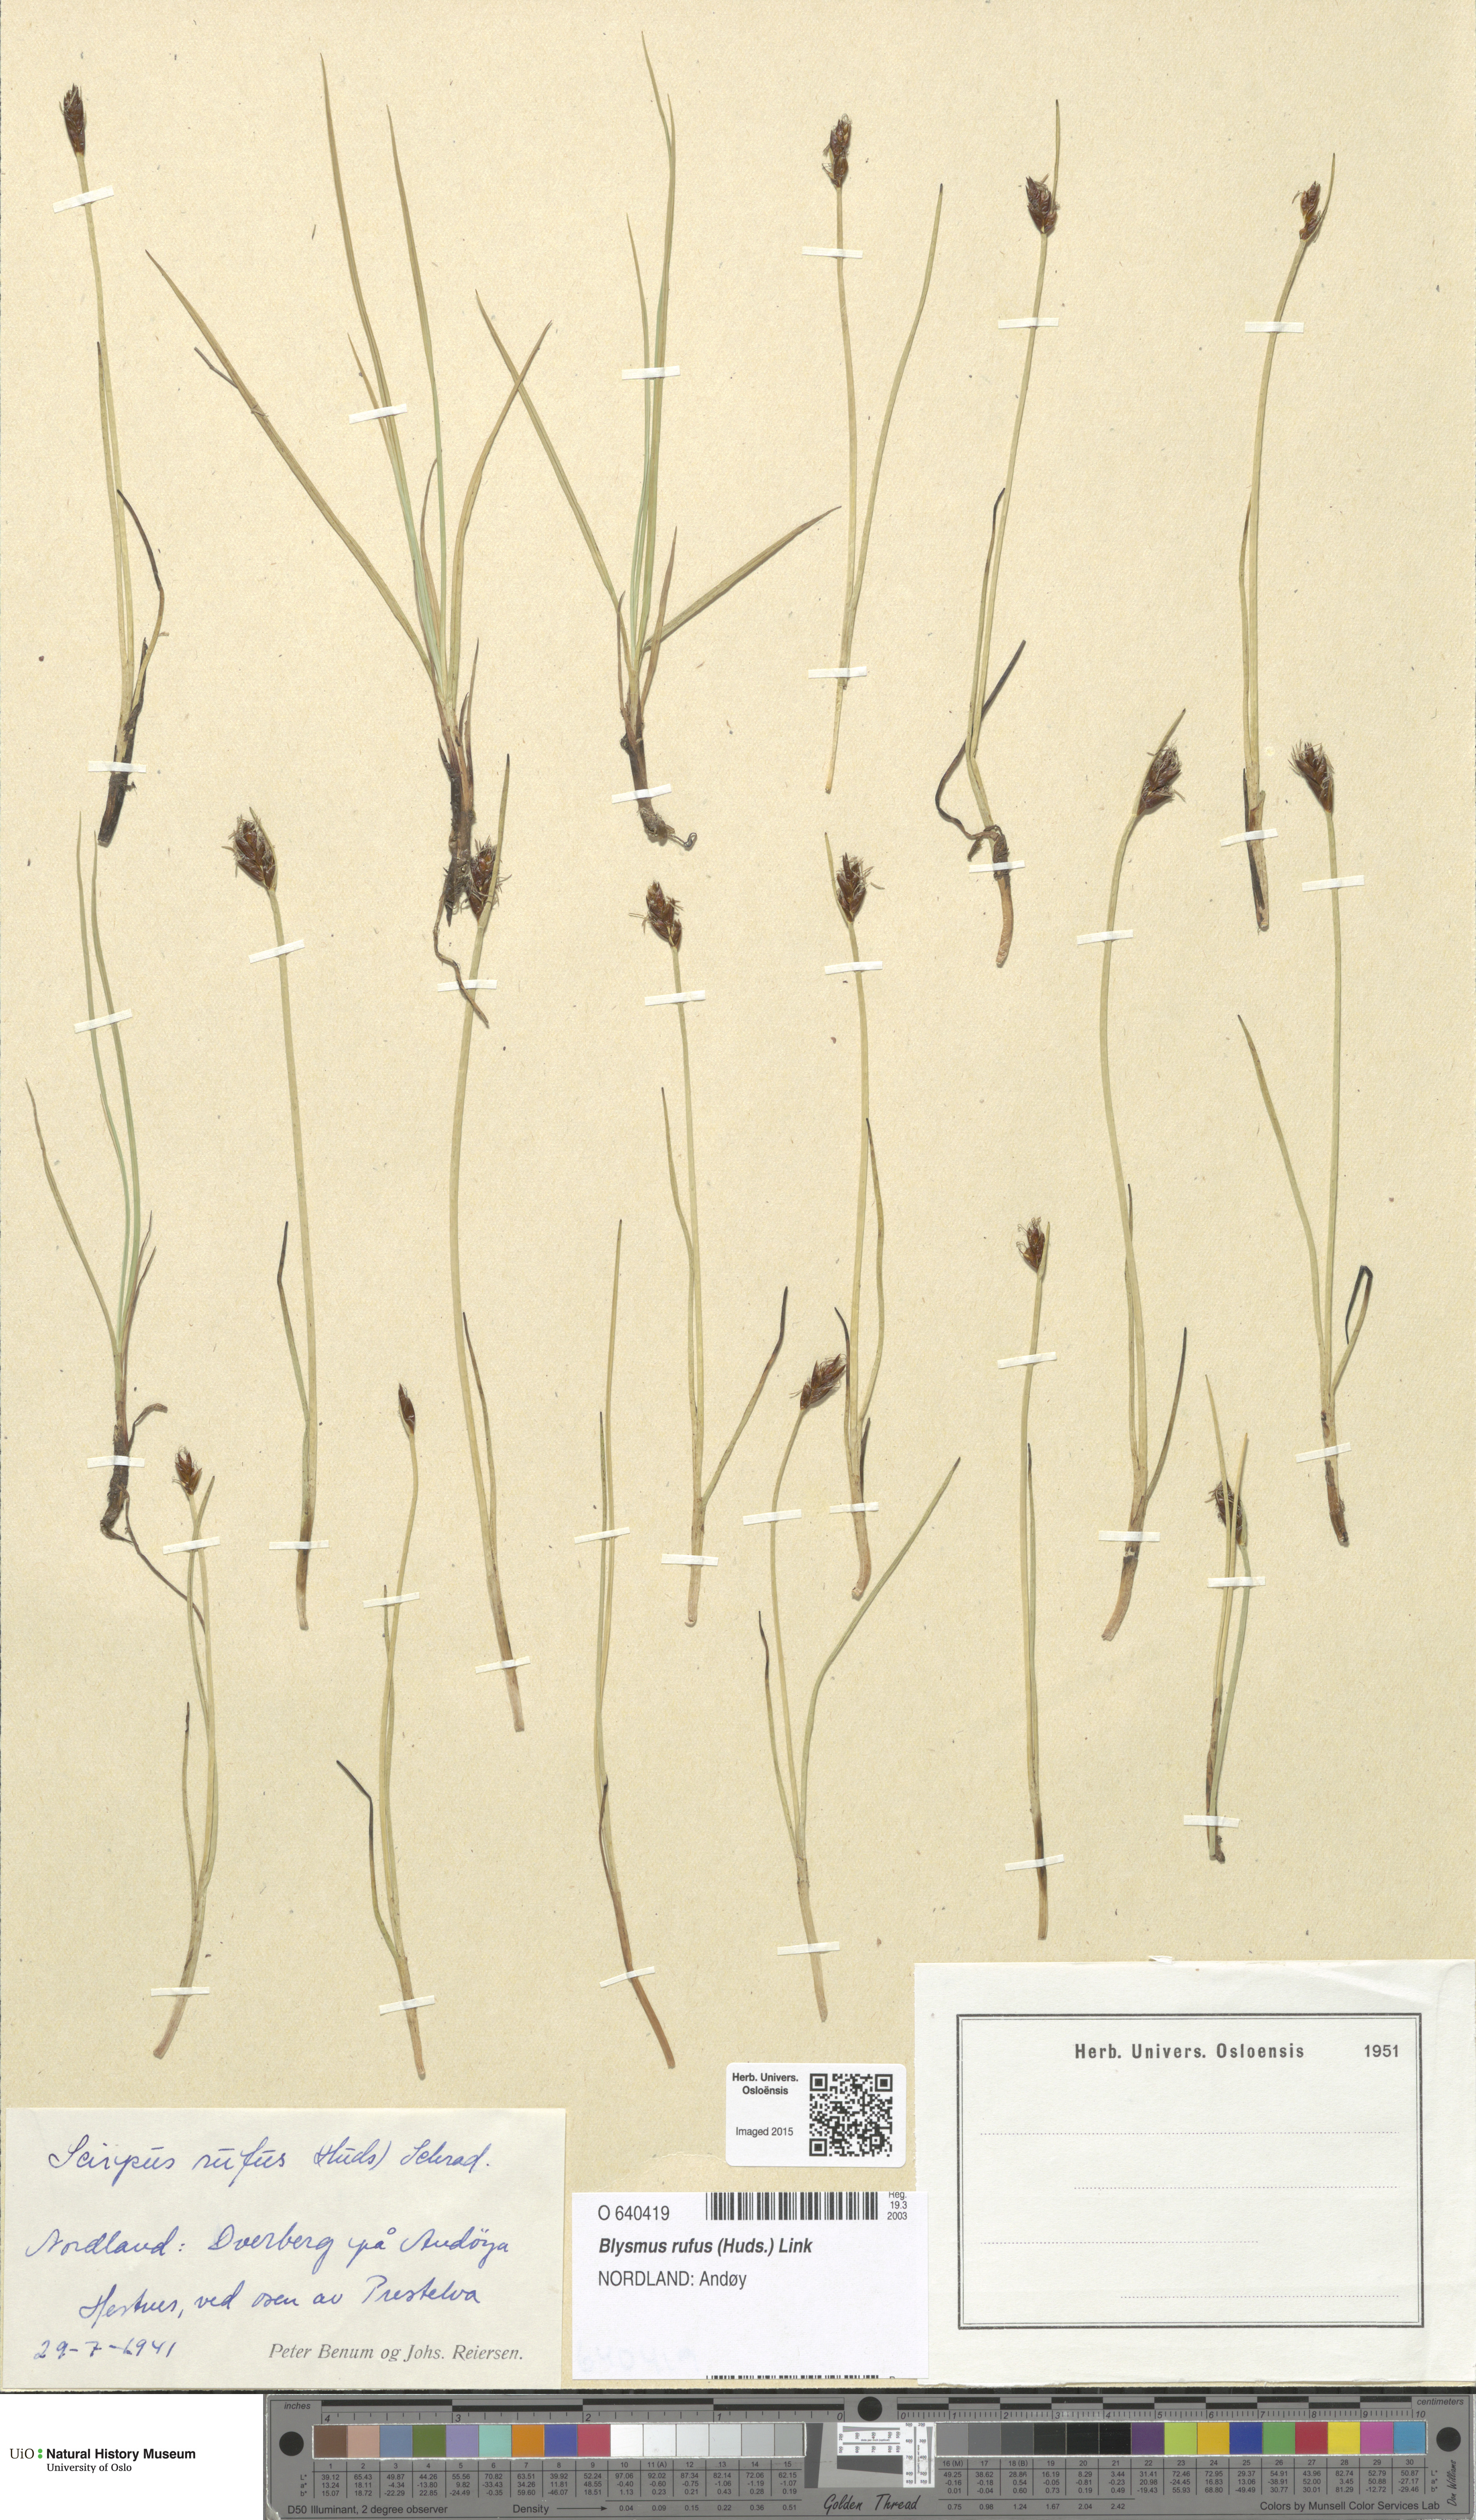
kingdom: Plantae
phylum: Tracheophyta
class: Liliopsida
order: Poales
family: Cyperaceae
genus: Blysmus
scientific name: Blysmus rufus
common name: Saltmarsh flat-sedge
